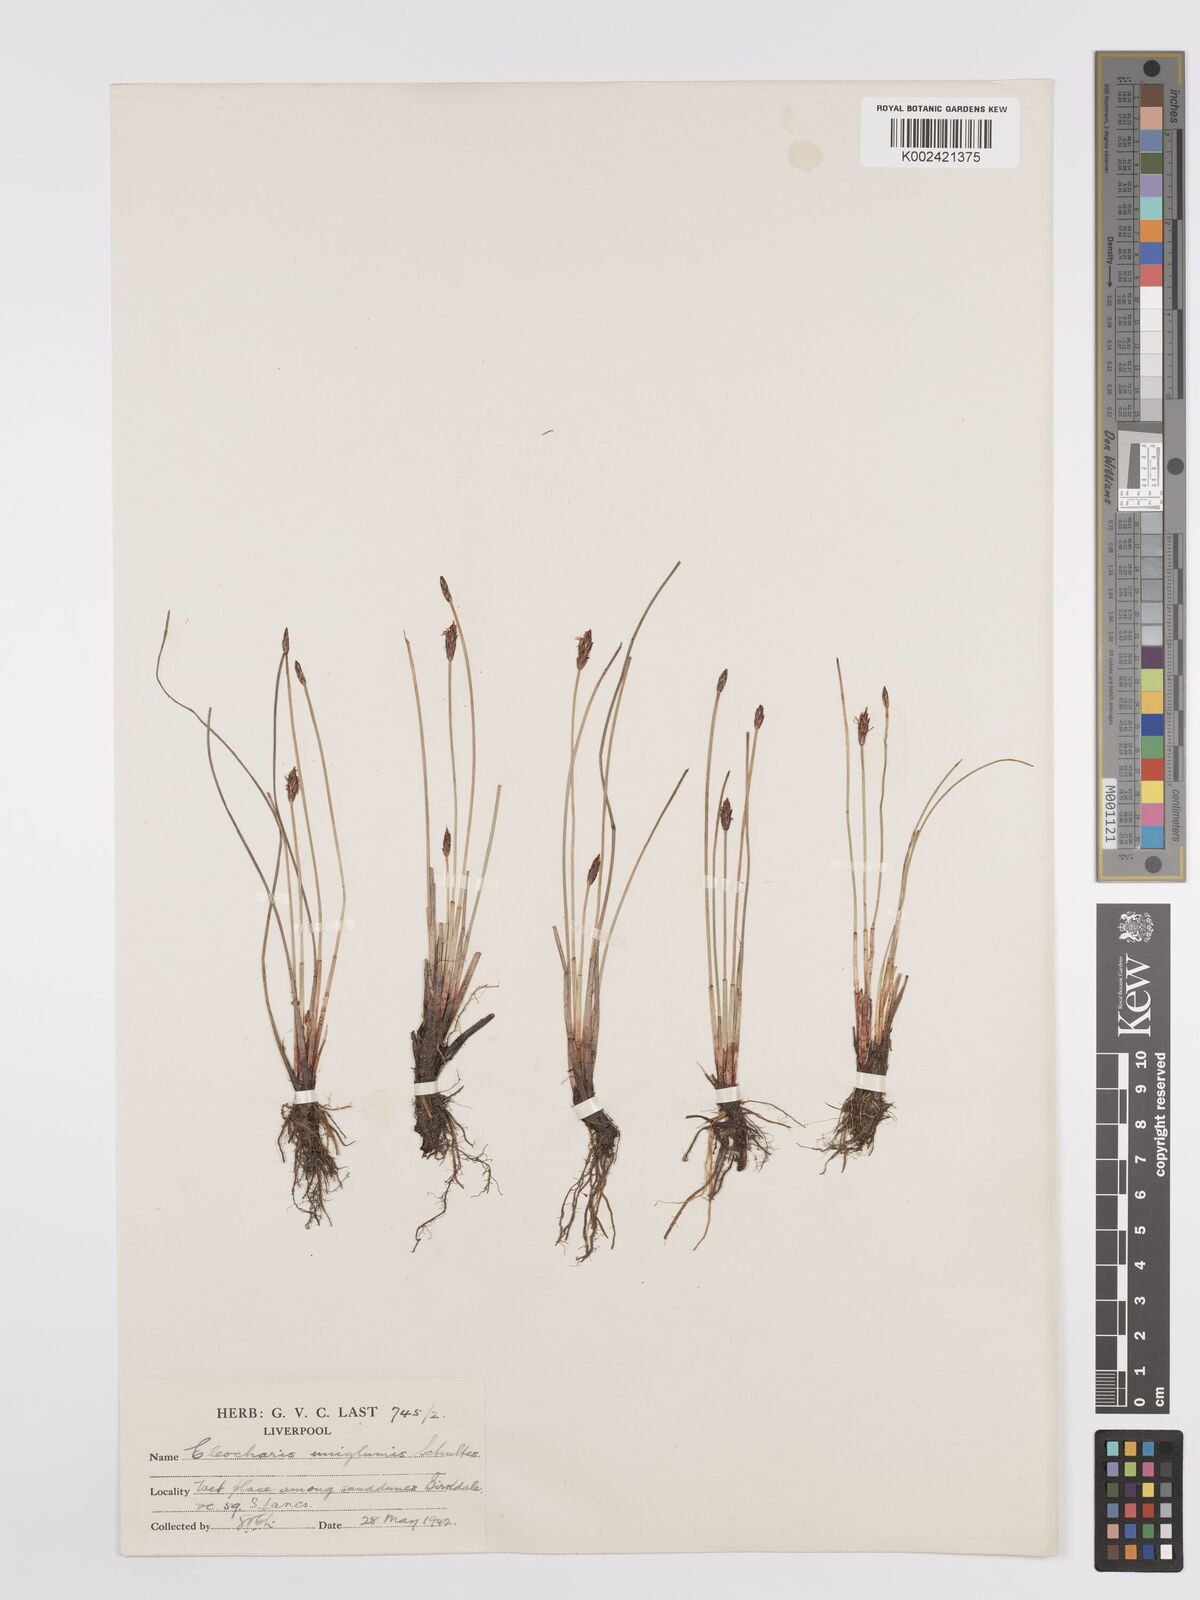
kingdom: Plantae
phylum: Tracheophyta
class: Liliopsida
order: Poales
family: Cyperaceae
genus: Eleocharis
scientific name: Eleocharis uniglumis
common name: Slender spike-rush
